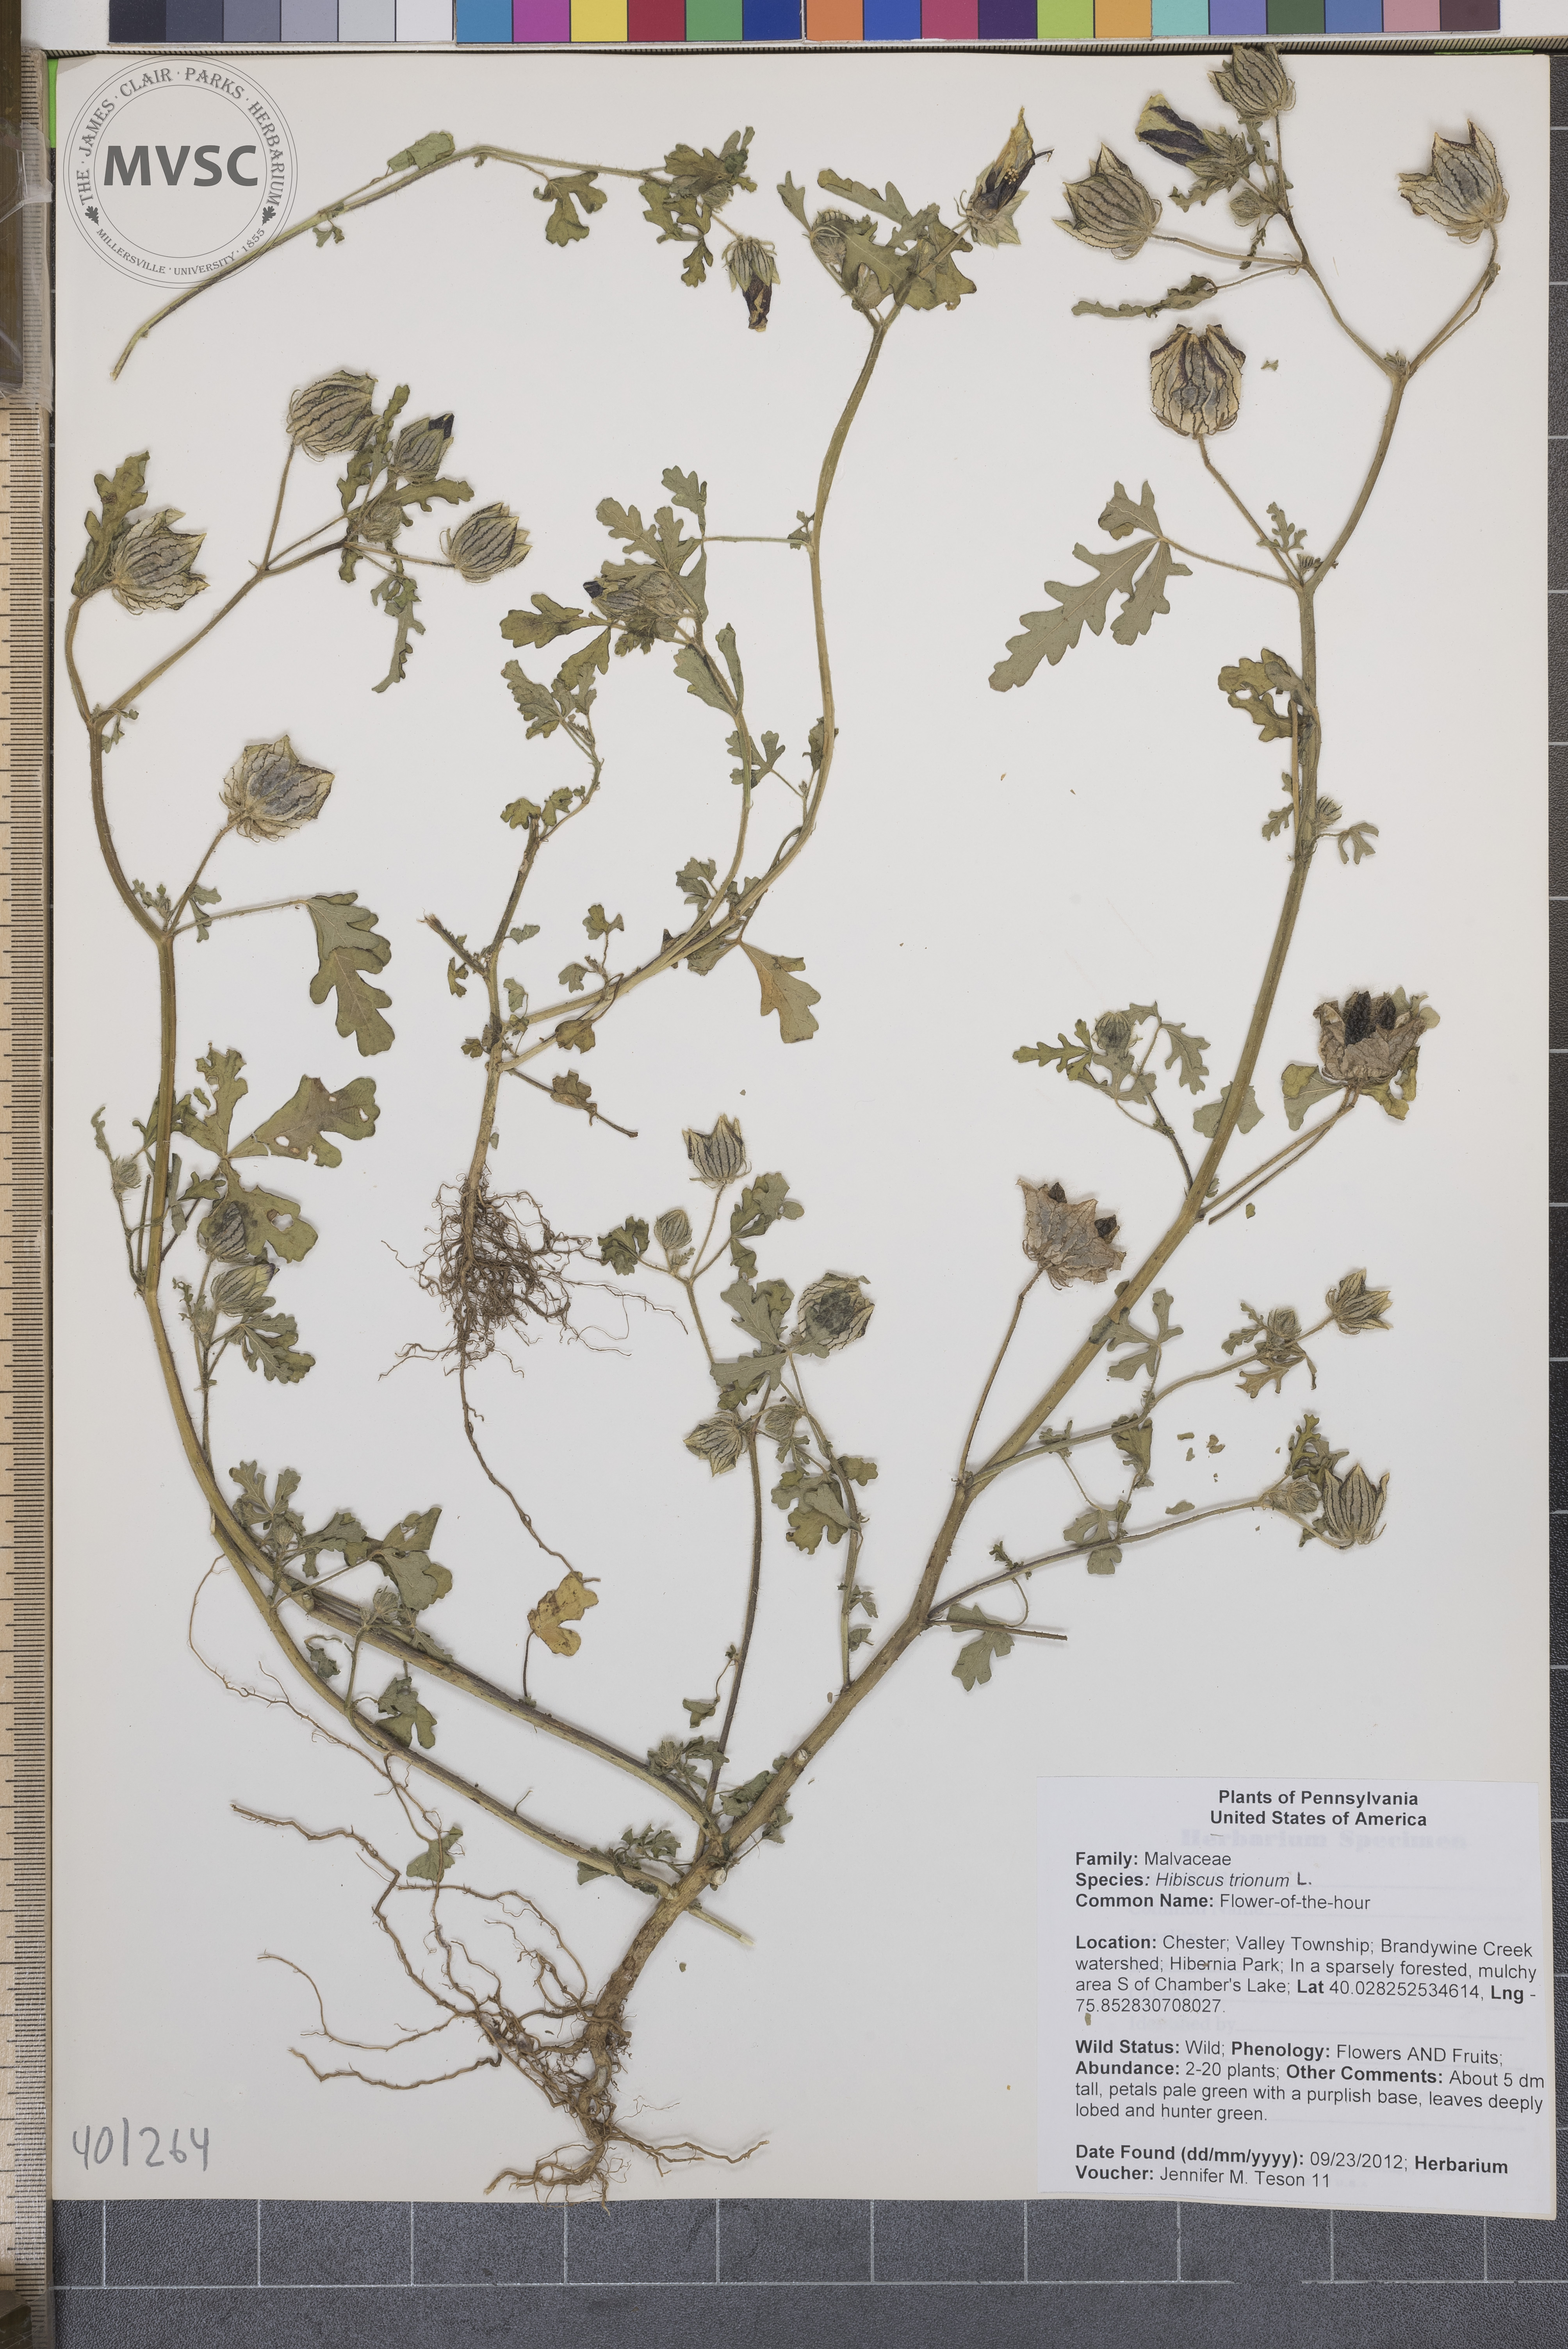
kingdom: Plantae
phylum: Tracheophyta
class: Magnoliopsida
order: Malvales
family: Malvaceae
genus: Hibiscus
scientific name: Hibiscus trionum
